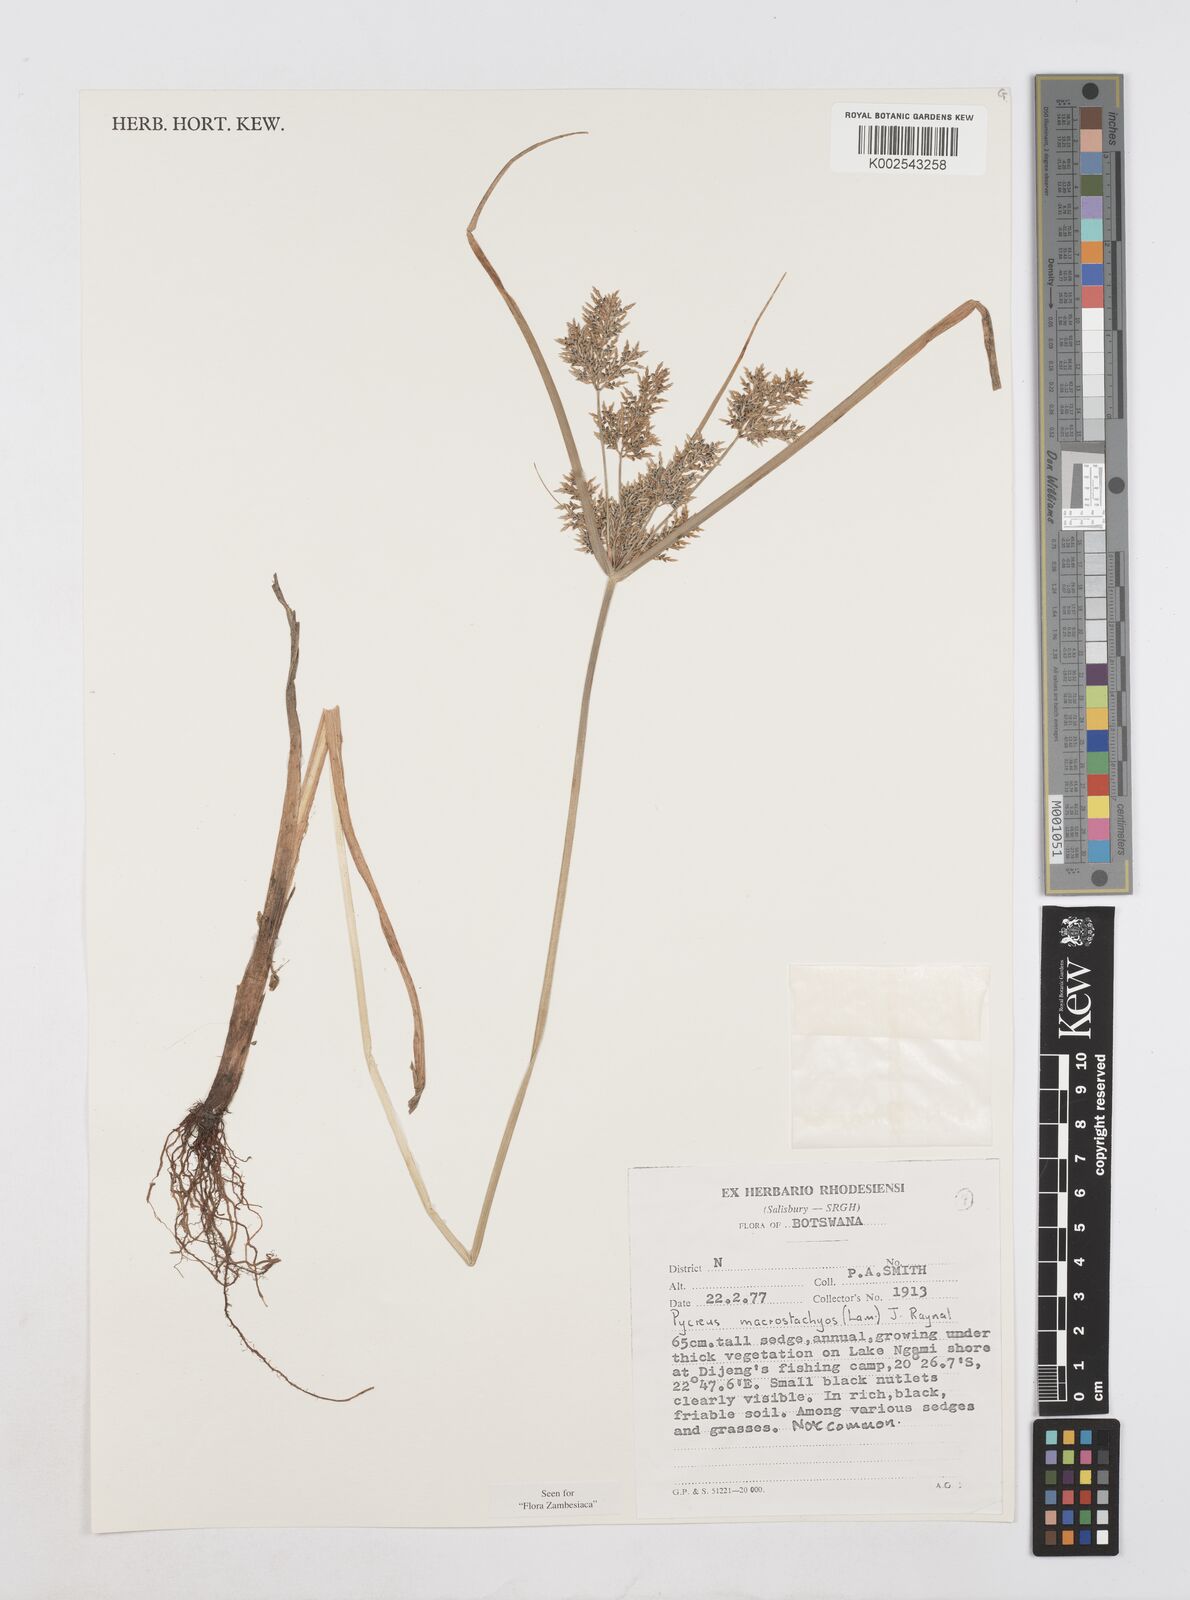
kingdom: Plantae
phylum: Tracheophyta
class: Liliopsida
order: Poales
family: Cyperaceae
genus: Cyperus
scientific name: Cyperus macrostachyos
